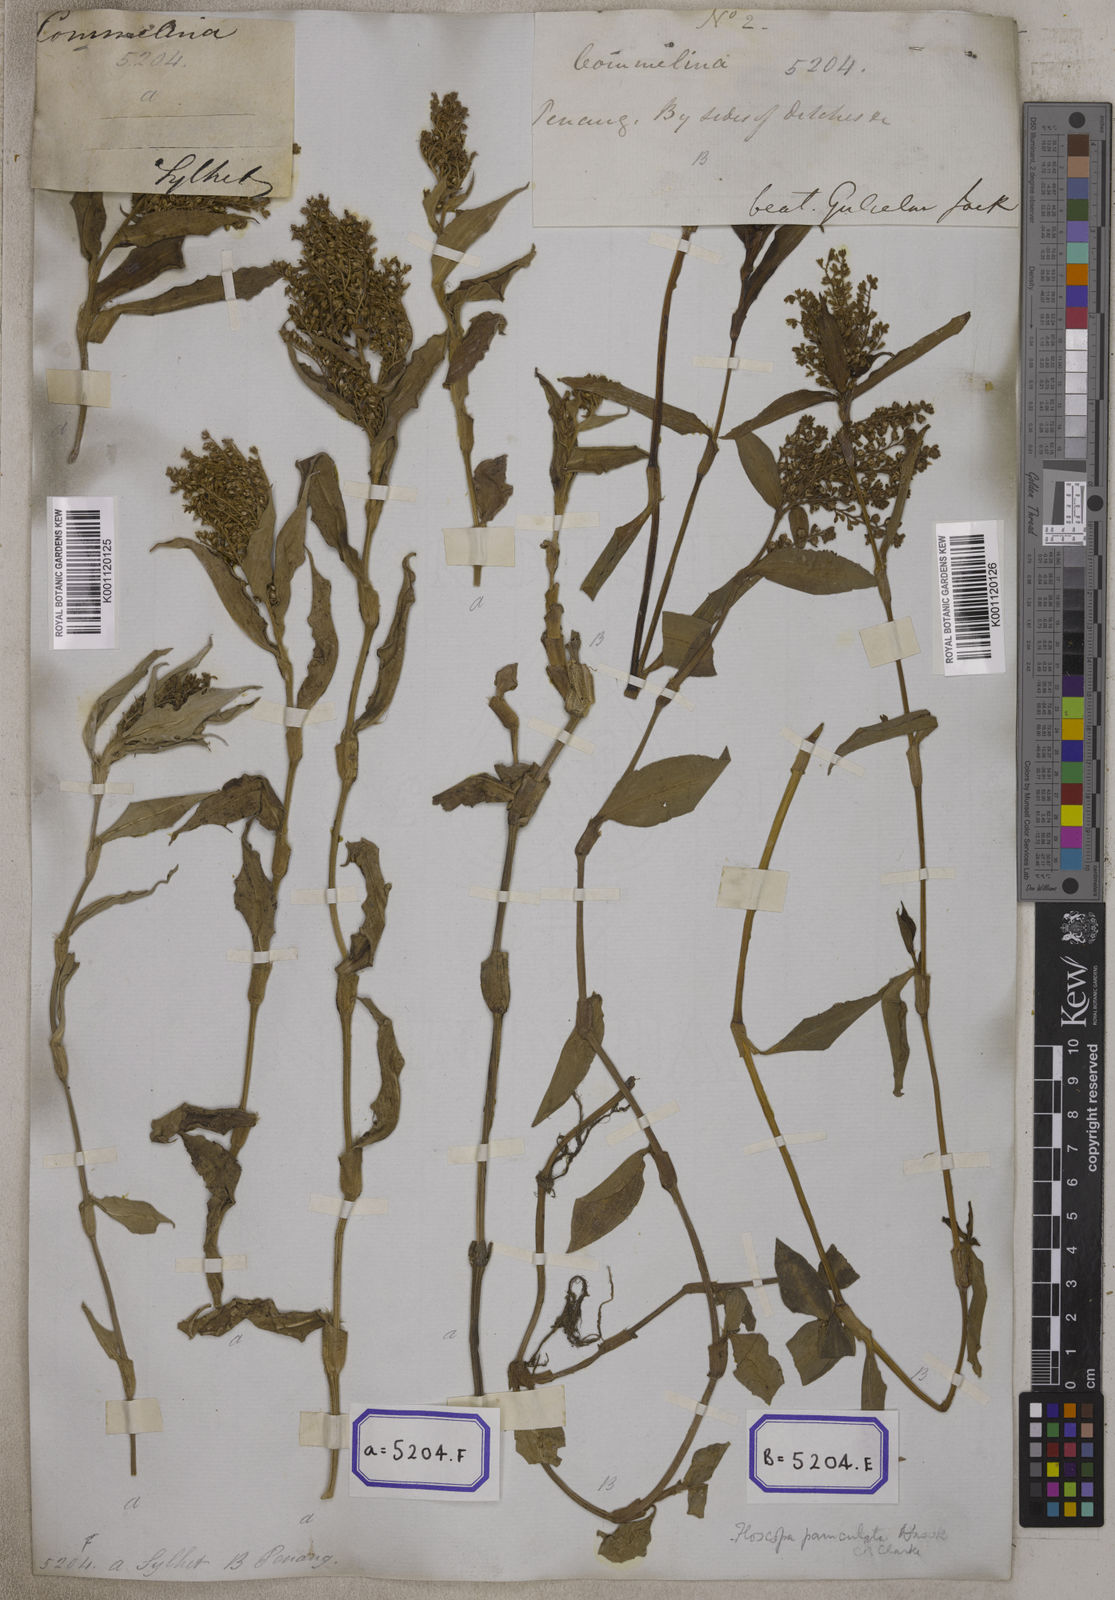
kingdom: Plantae
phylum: Tracheophyta
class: Liliopsida
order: Commelinales
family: Commelinaceae
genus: Floscopa
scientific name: Floscopa scandens
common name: Climbing flower cup
